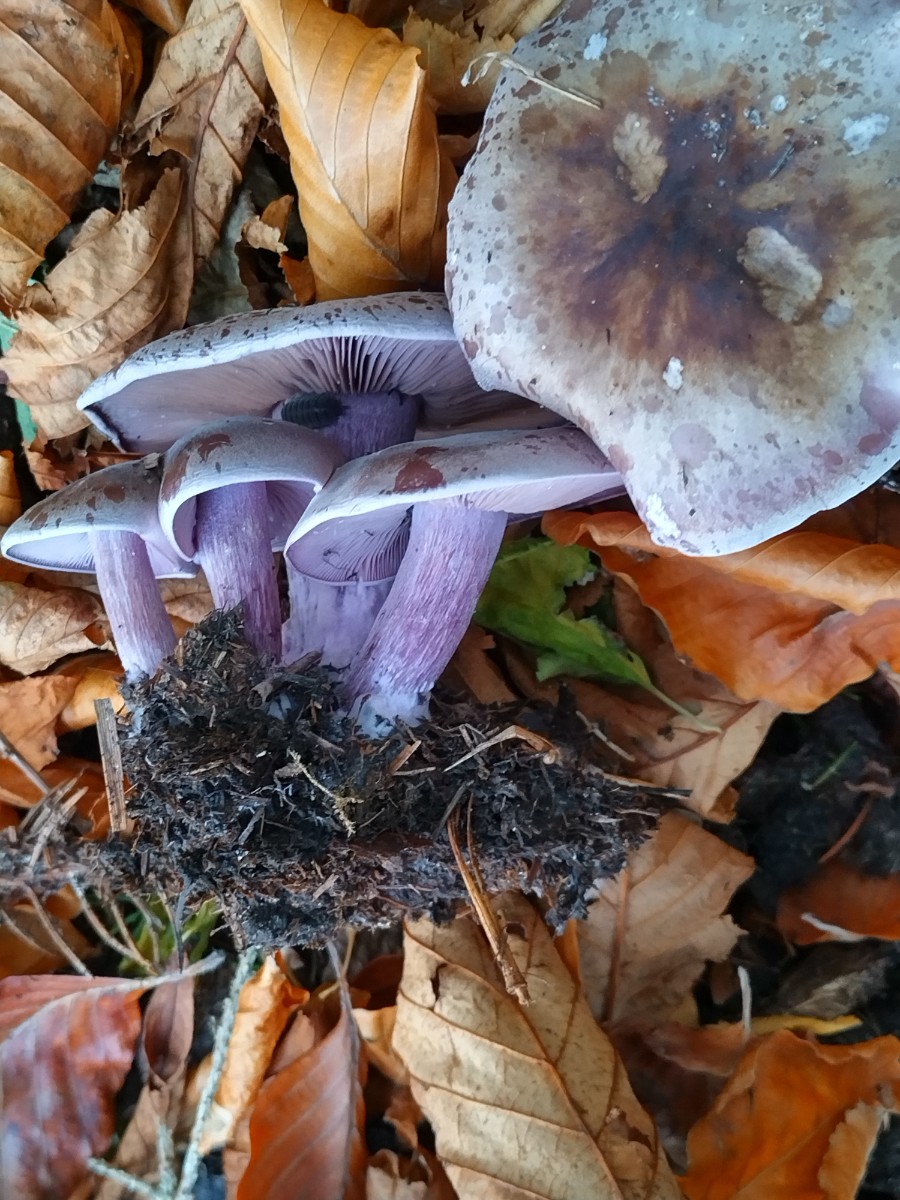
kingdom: Fungi
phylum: Basidiomycota
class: Agaricomycetes
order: Agaricales
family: Tricholomataceae
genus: Lepista
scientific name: Lepista lilacea
